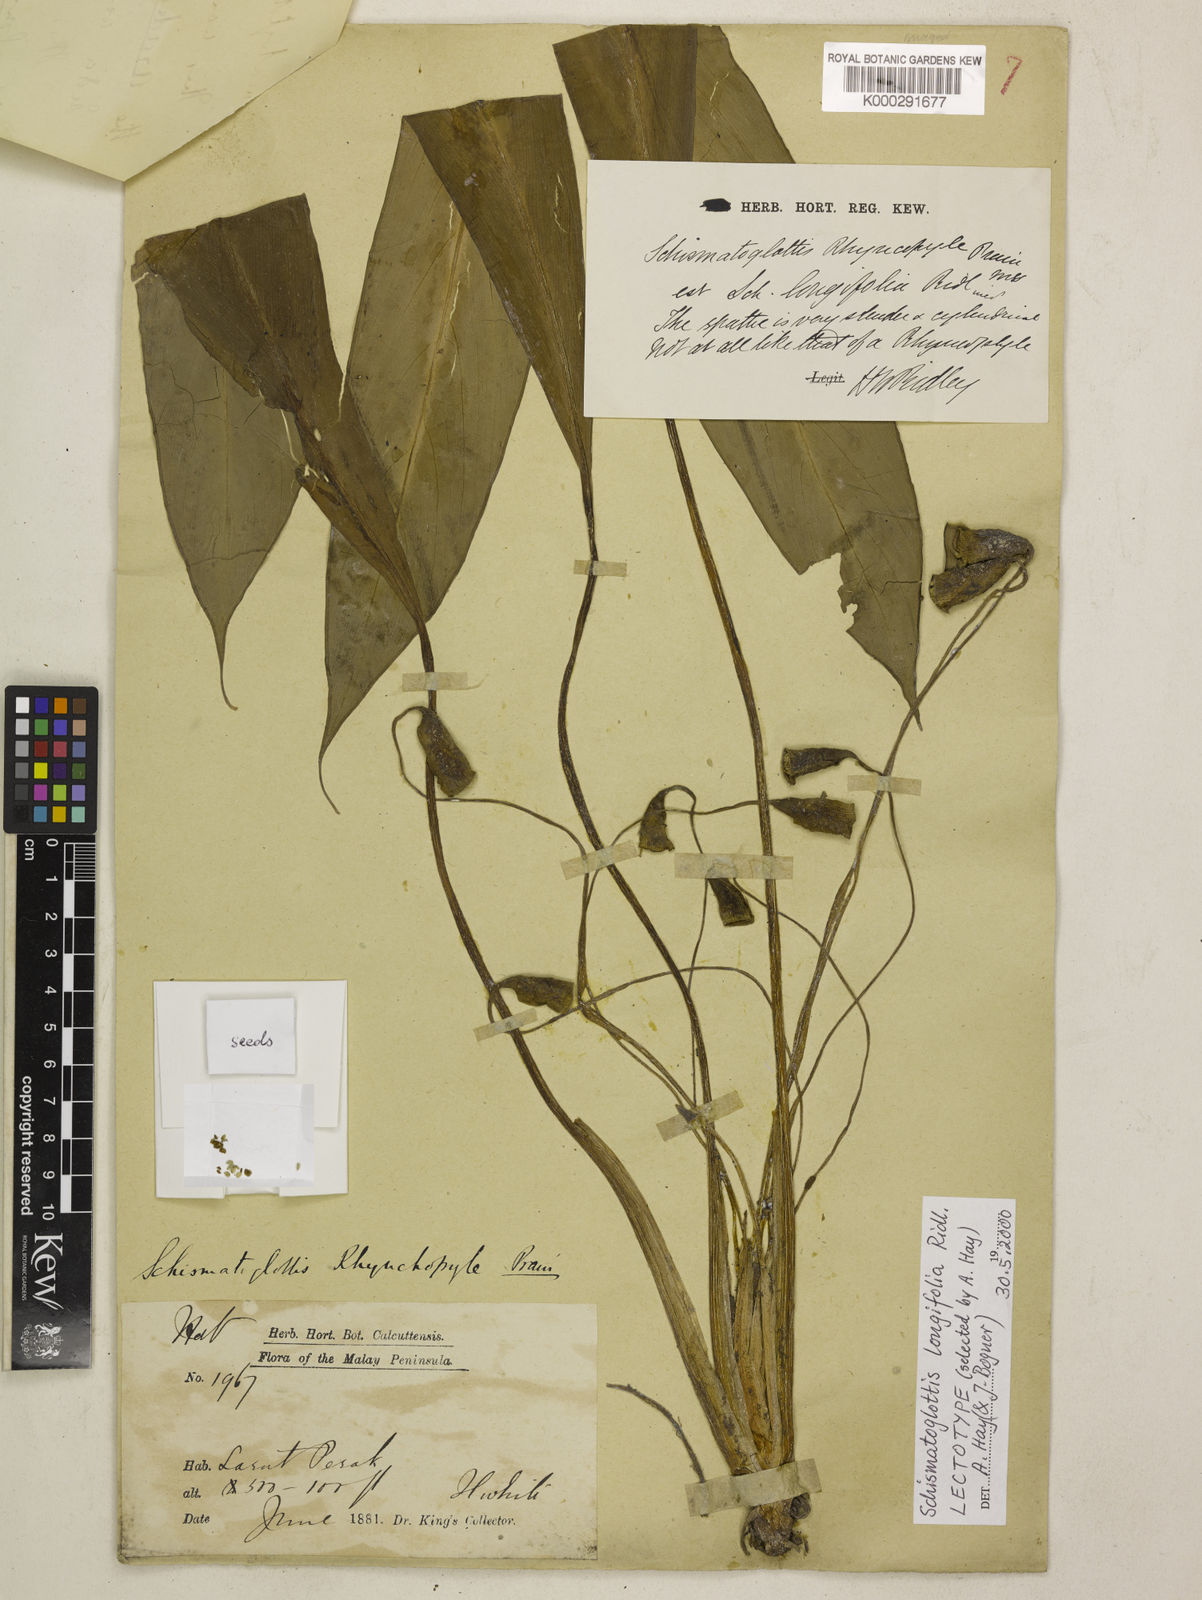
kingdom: Plantae
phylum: Tracheophyta
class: Liliopsida
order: Alismatales
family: Araceae
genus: Vesta
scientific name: Vesta longifolia
